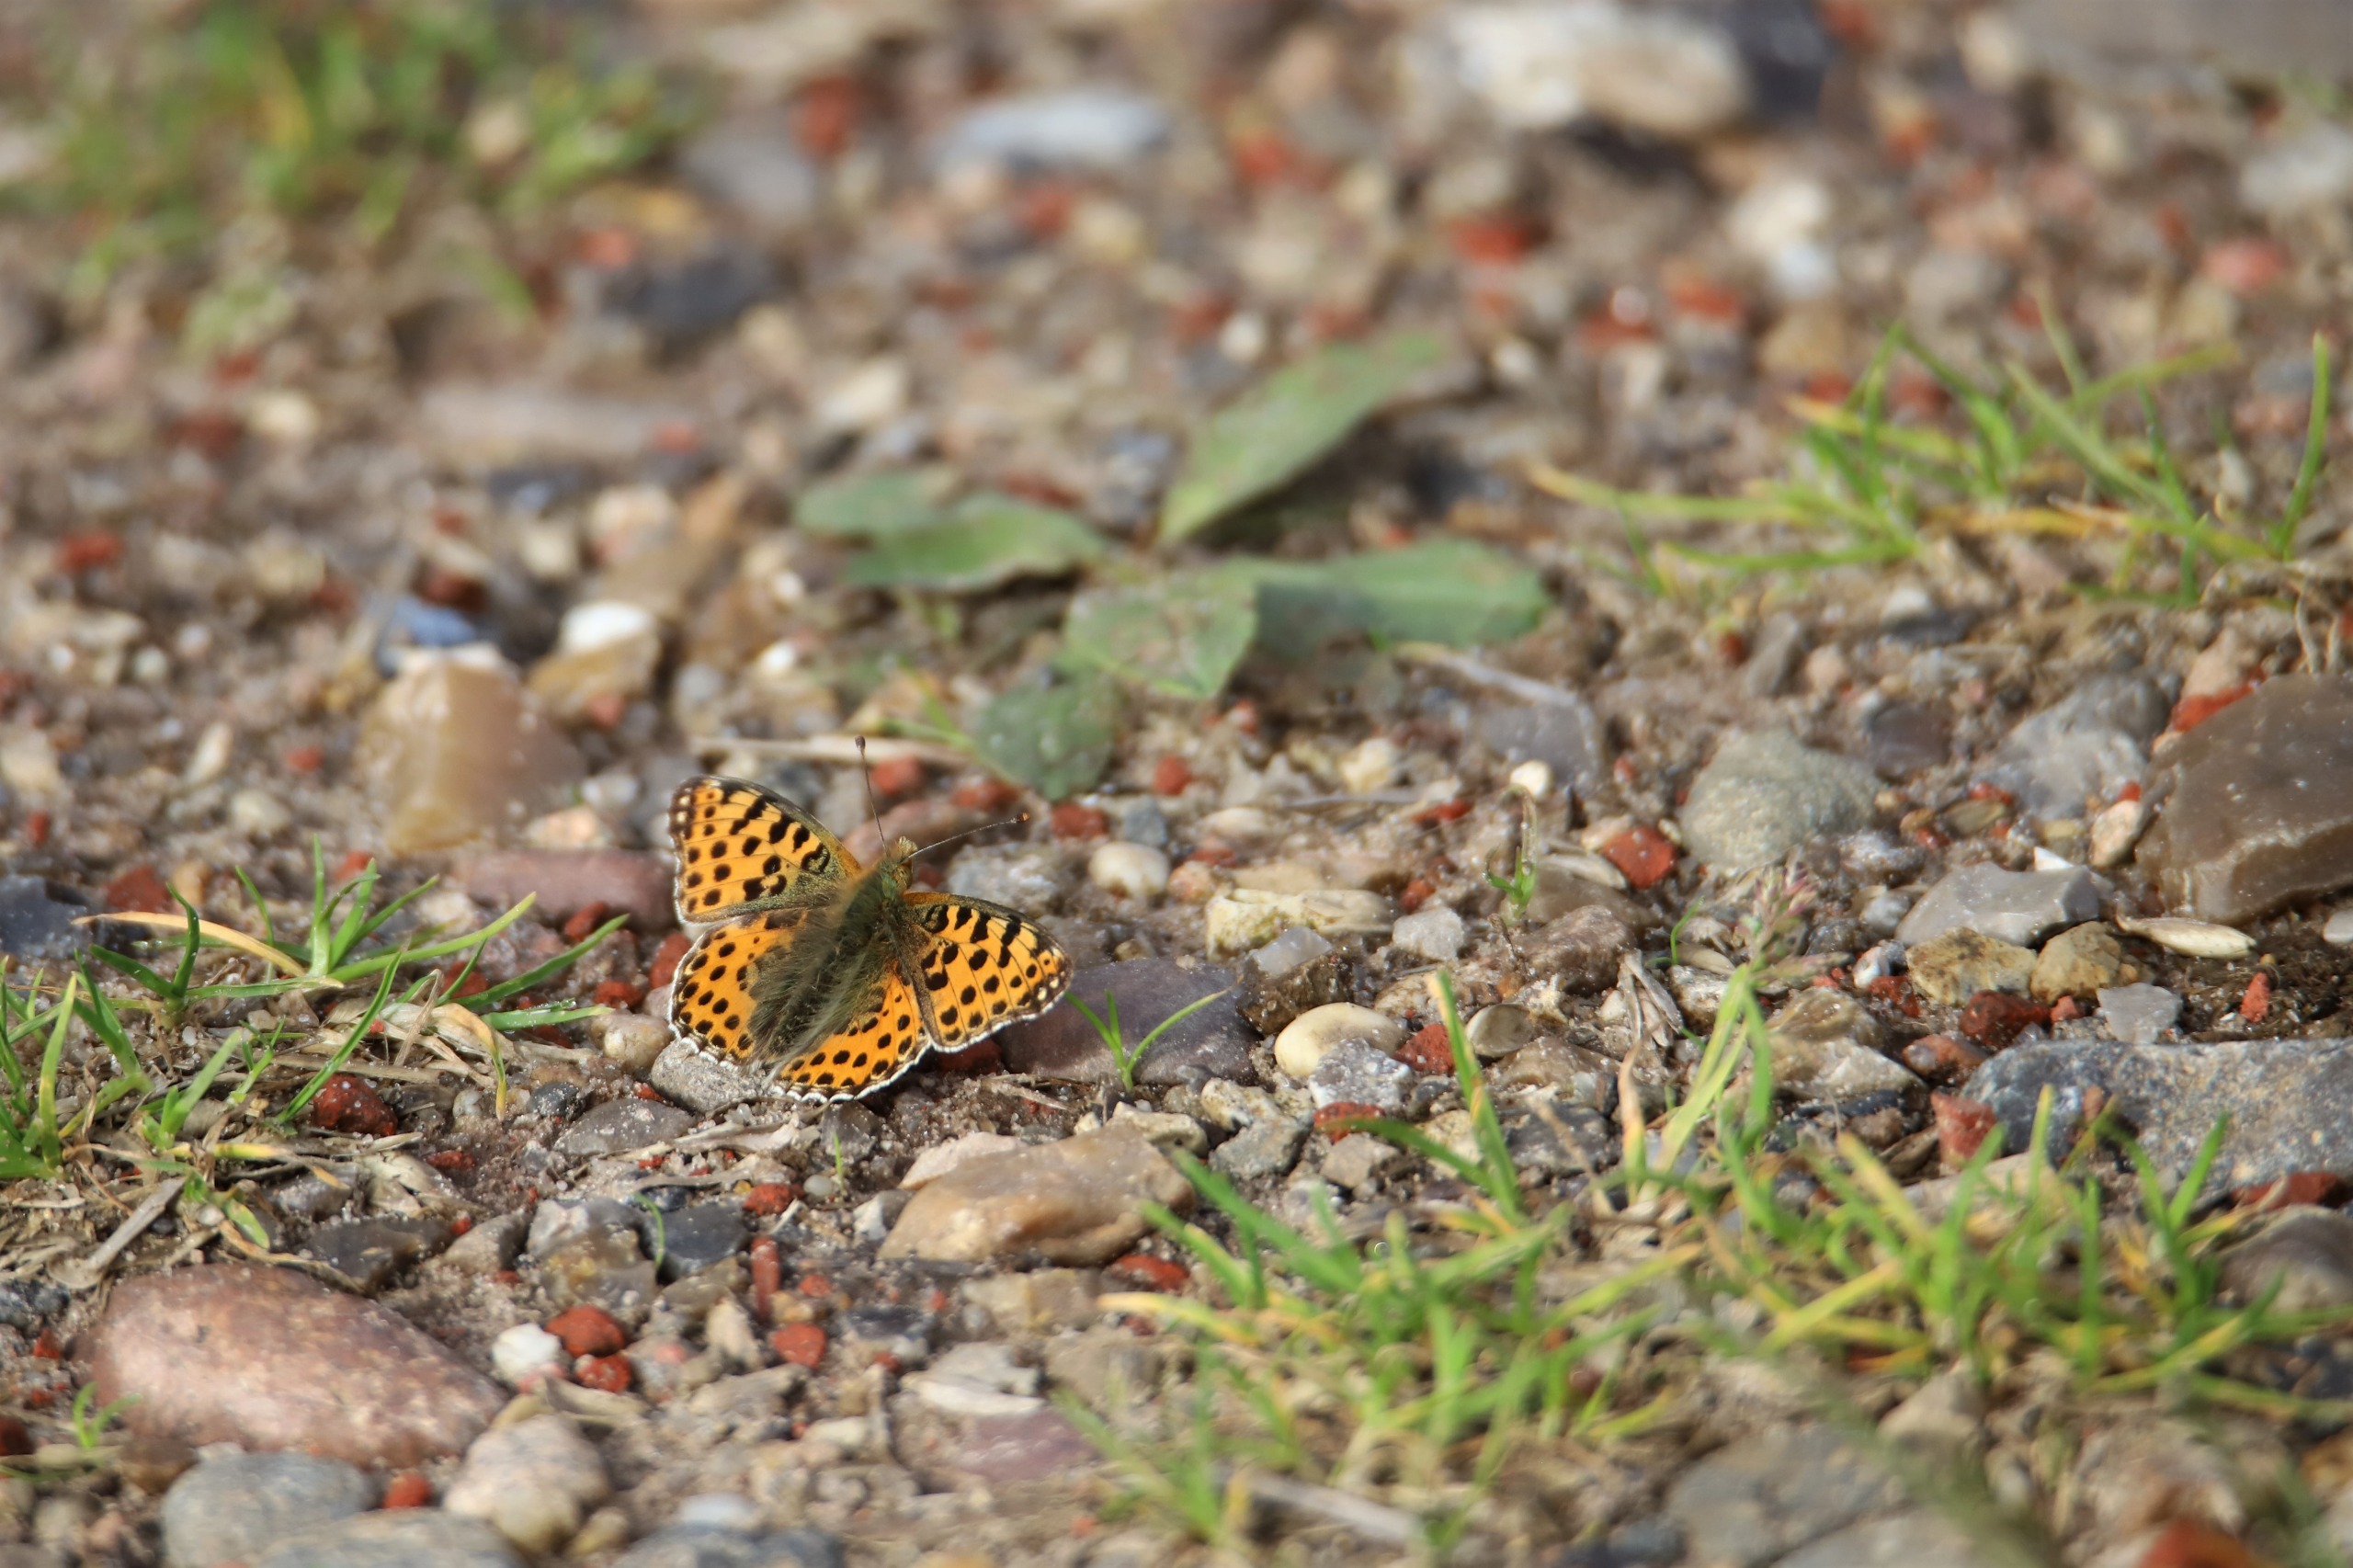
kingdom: Animalia
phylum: Arthropoda
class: Insecta
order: Lepidoptera
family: Nymphalidae
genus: Issoria
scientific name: Issoria lathonia
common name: Storplettet perlemorsommerfugl
